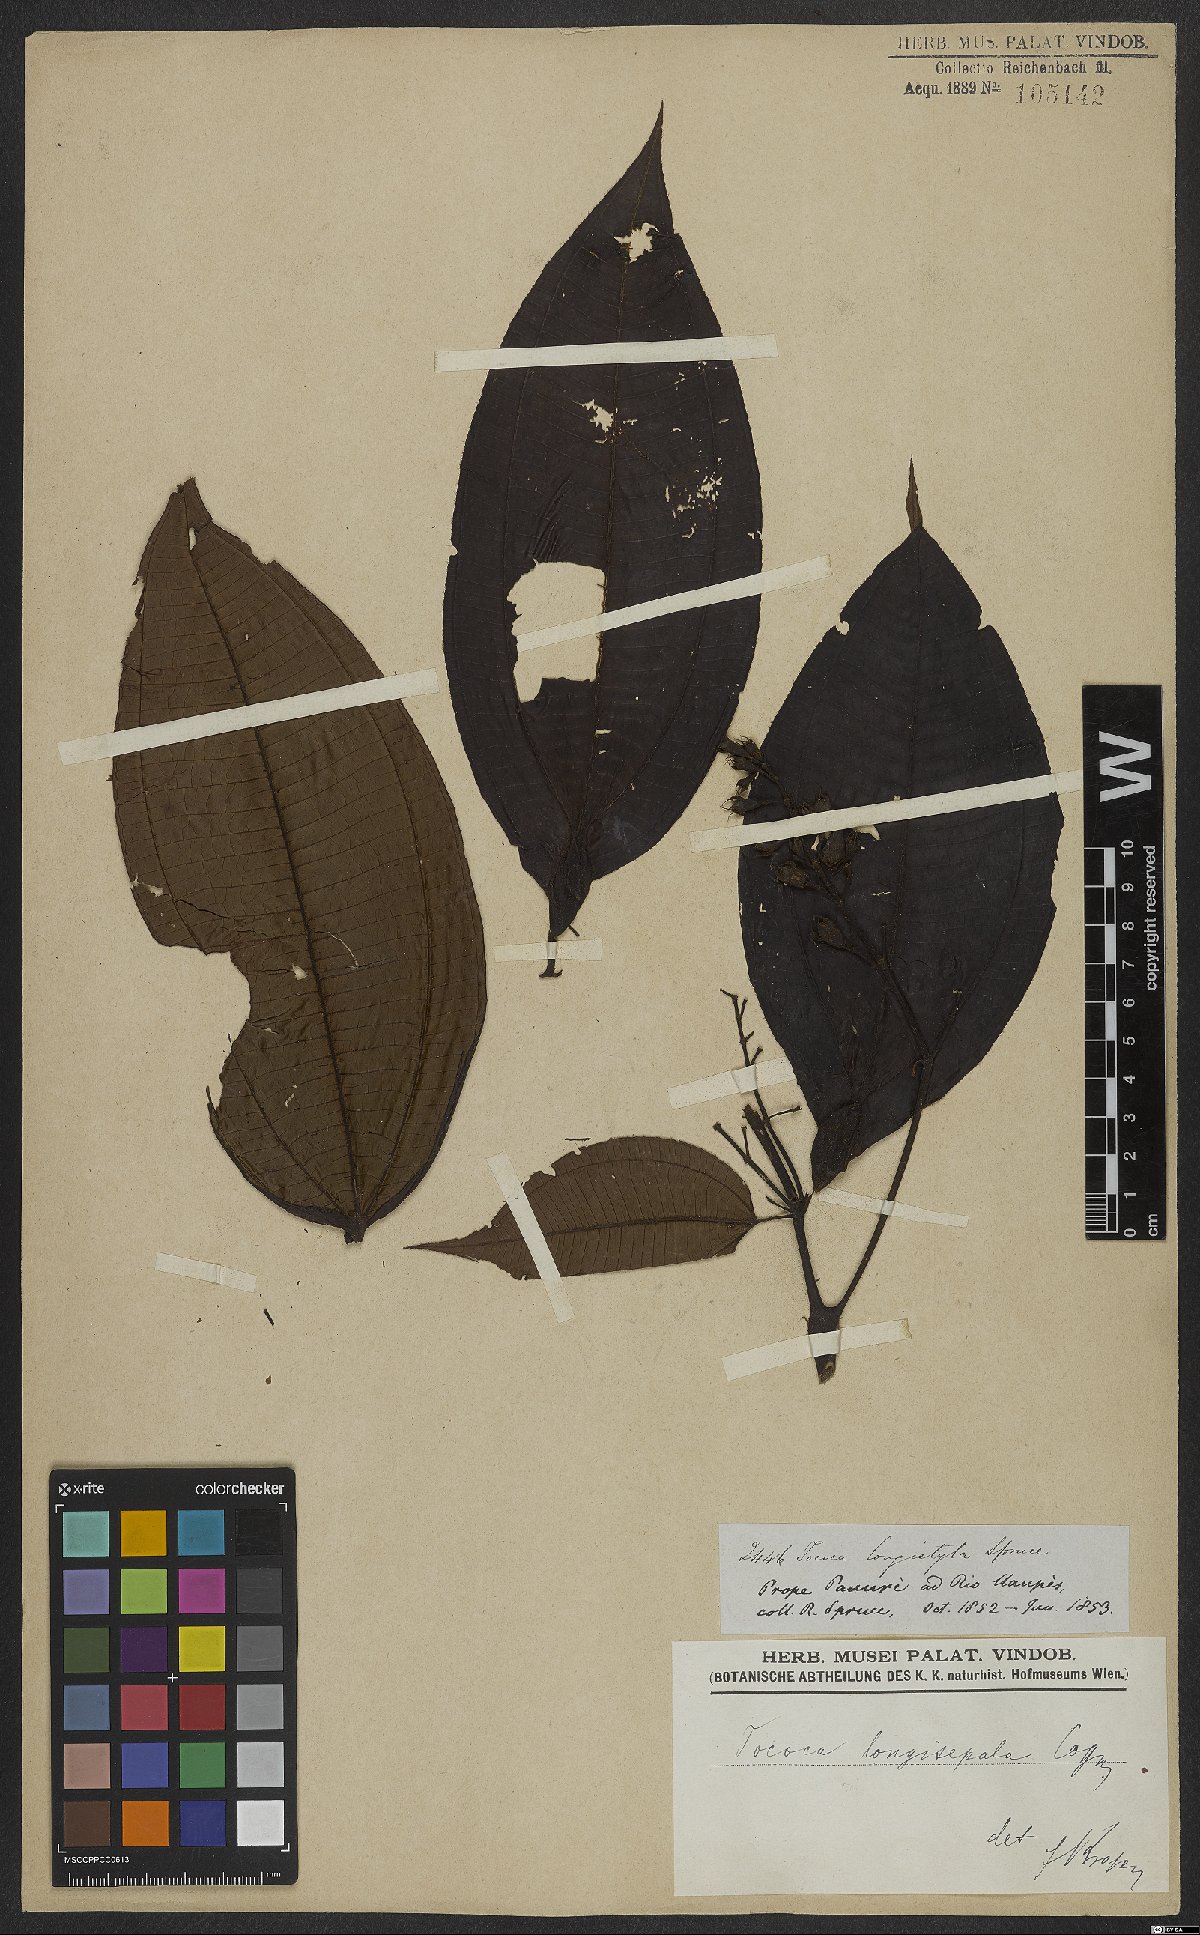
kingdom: Plantae
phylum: Tracheophyta
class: Magnoliopsida
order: Myrtales
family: Melastomataceae
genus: Miconia
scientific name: Miconia tococoronata
